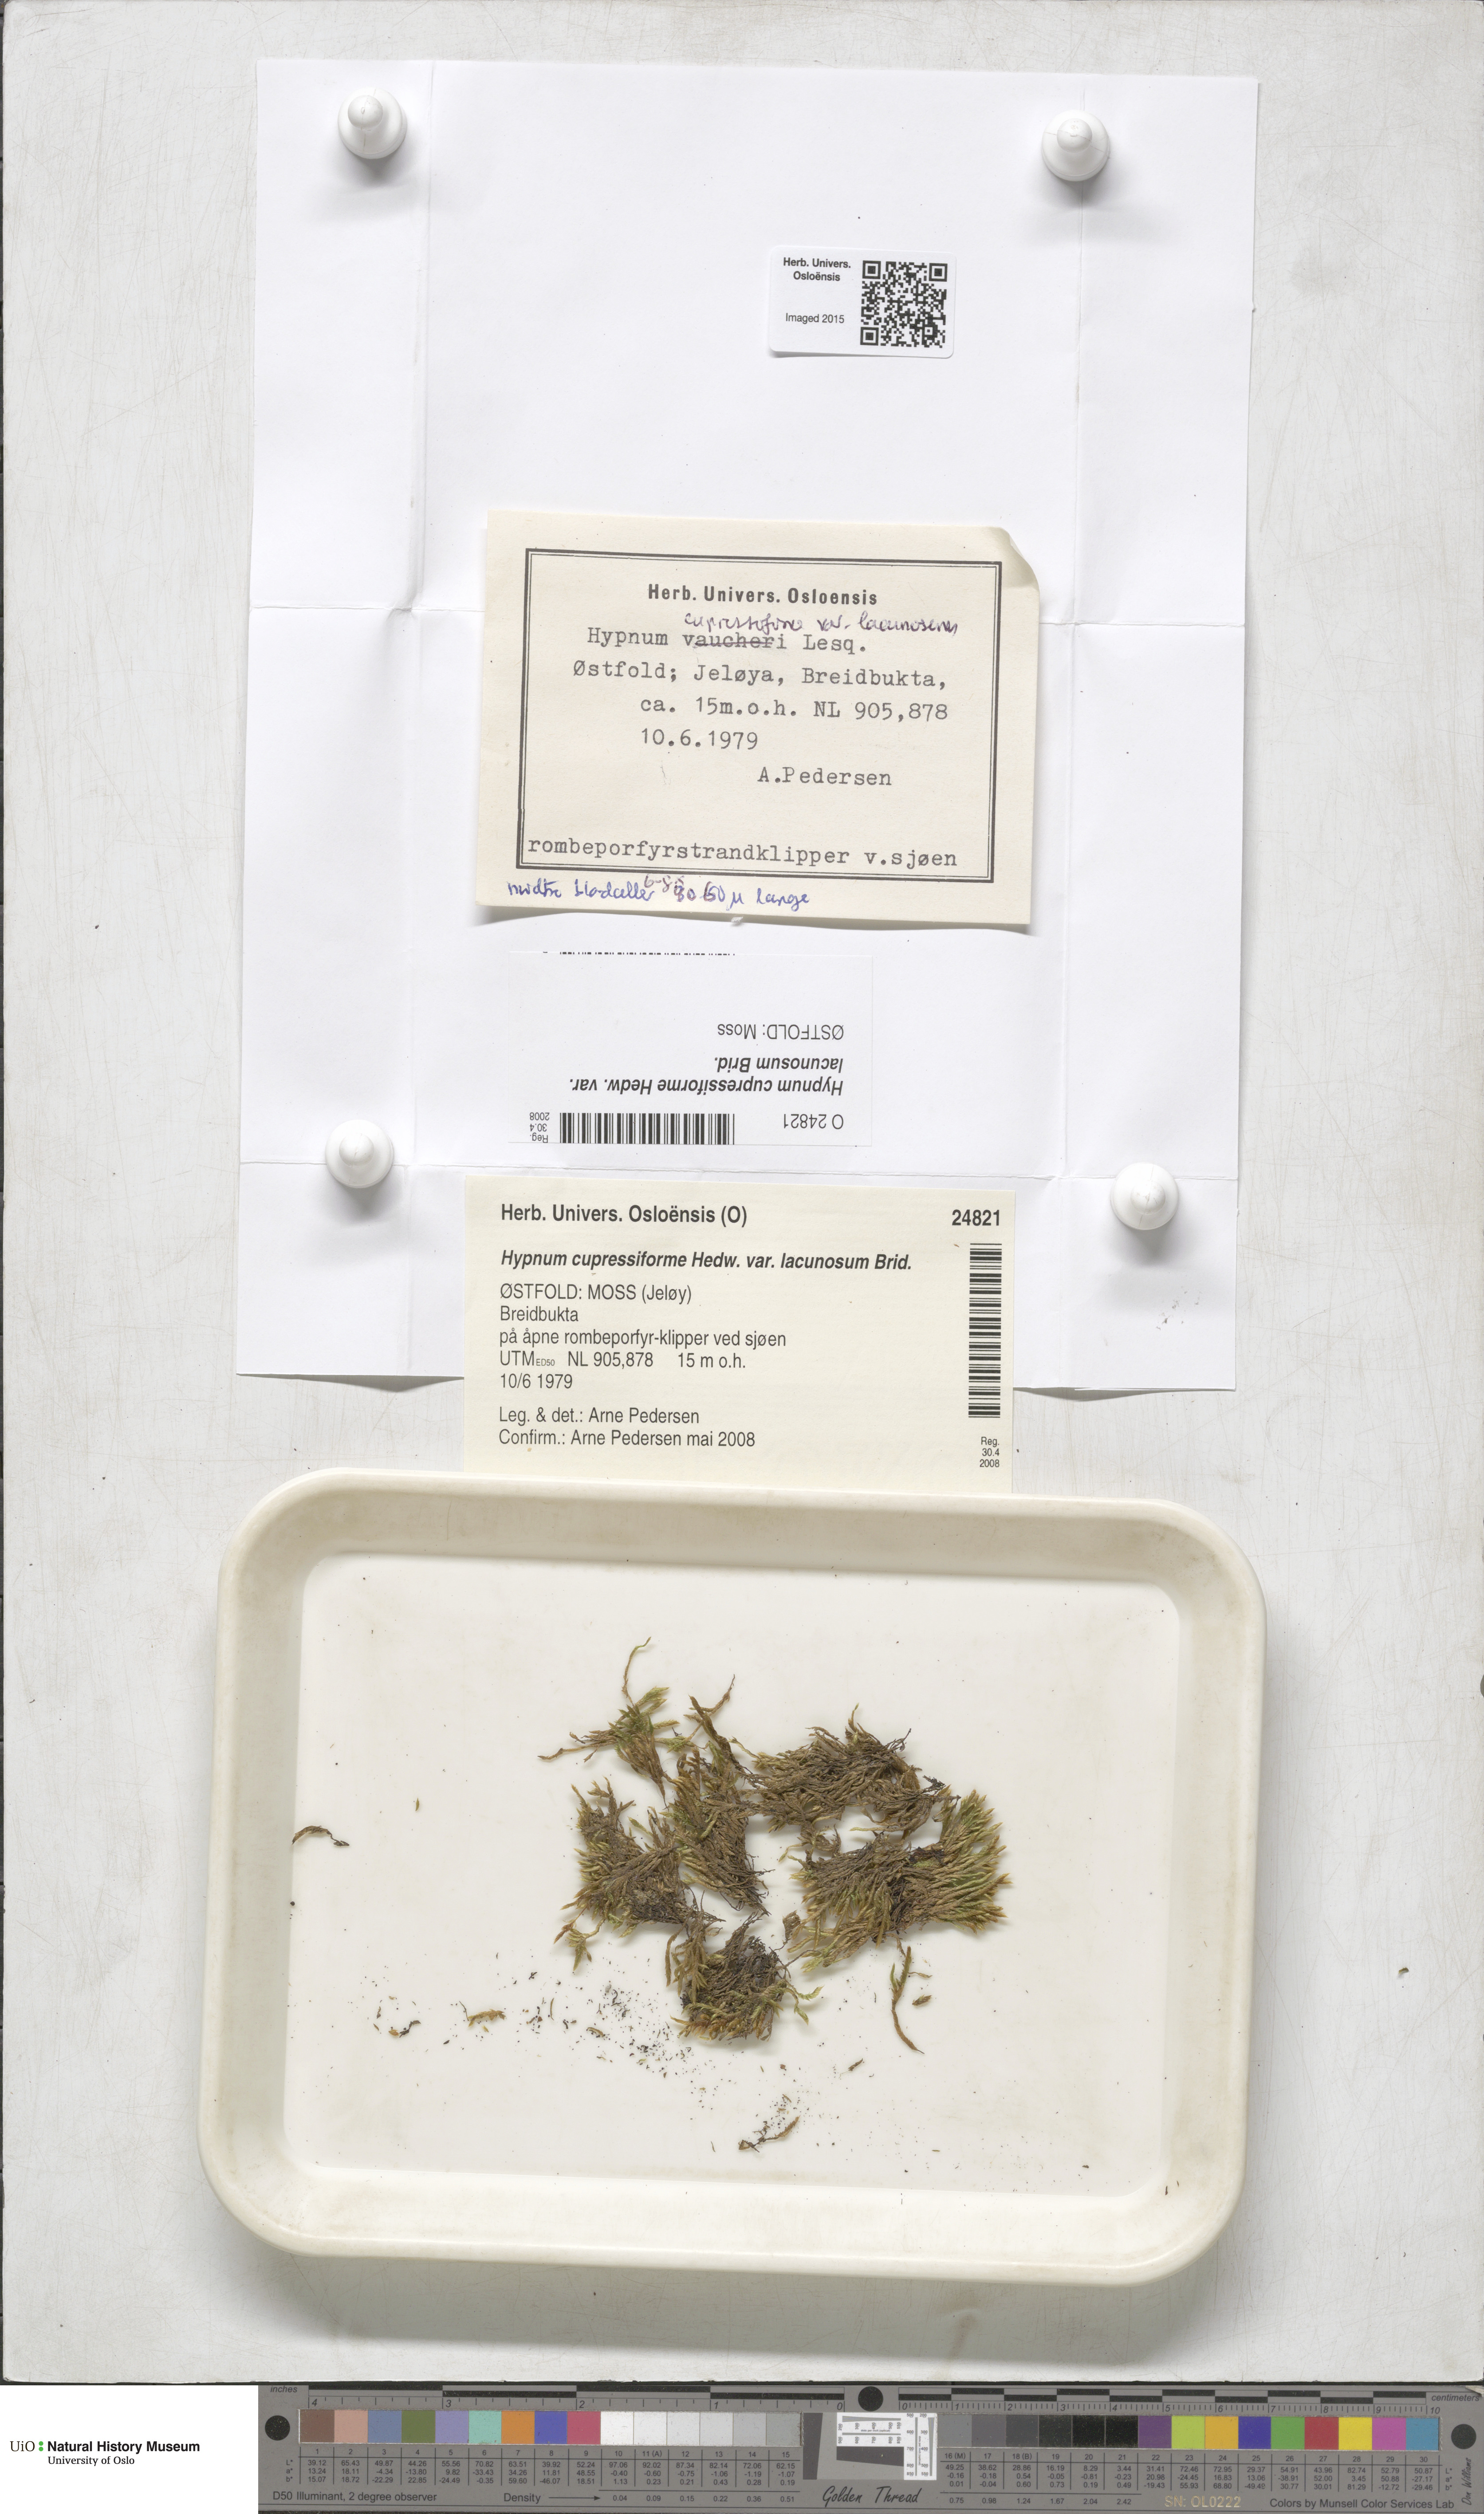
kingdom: Plantae
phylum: Bryophyta
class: Bryopsida
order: Hypnales
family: Hypnaceae
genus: Hypnum
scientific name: Hypnum cupressiforme
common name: Cypress-leaved plait-moss
